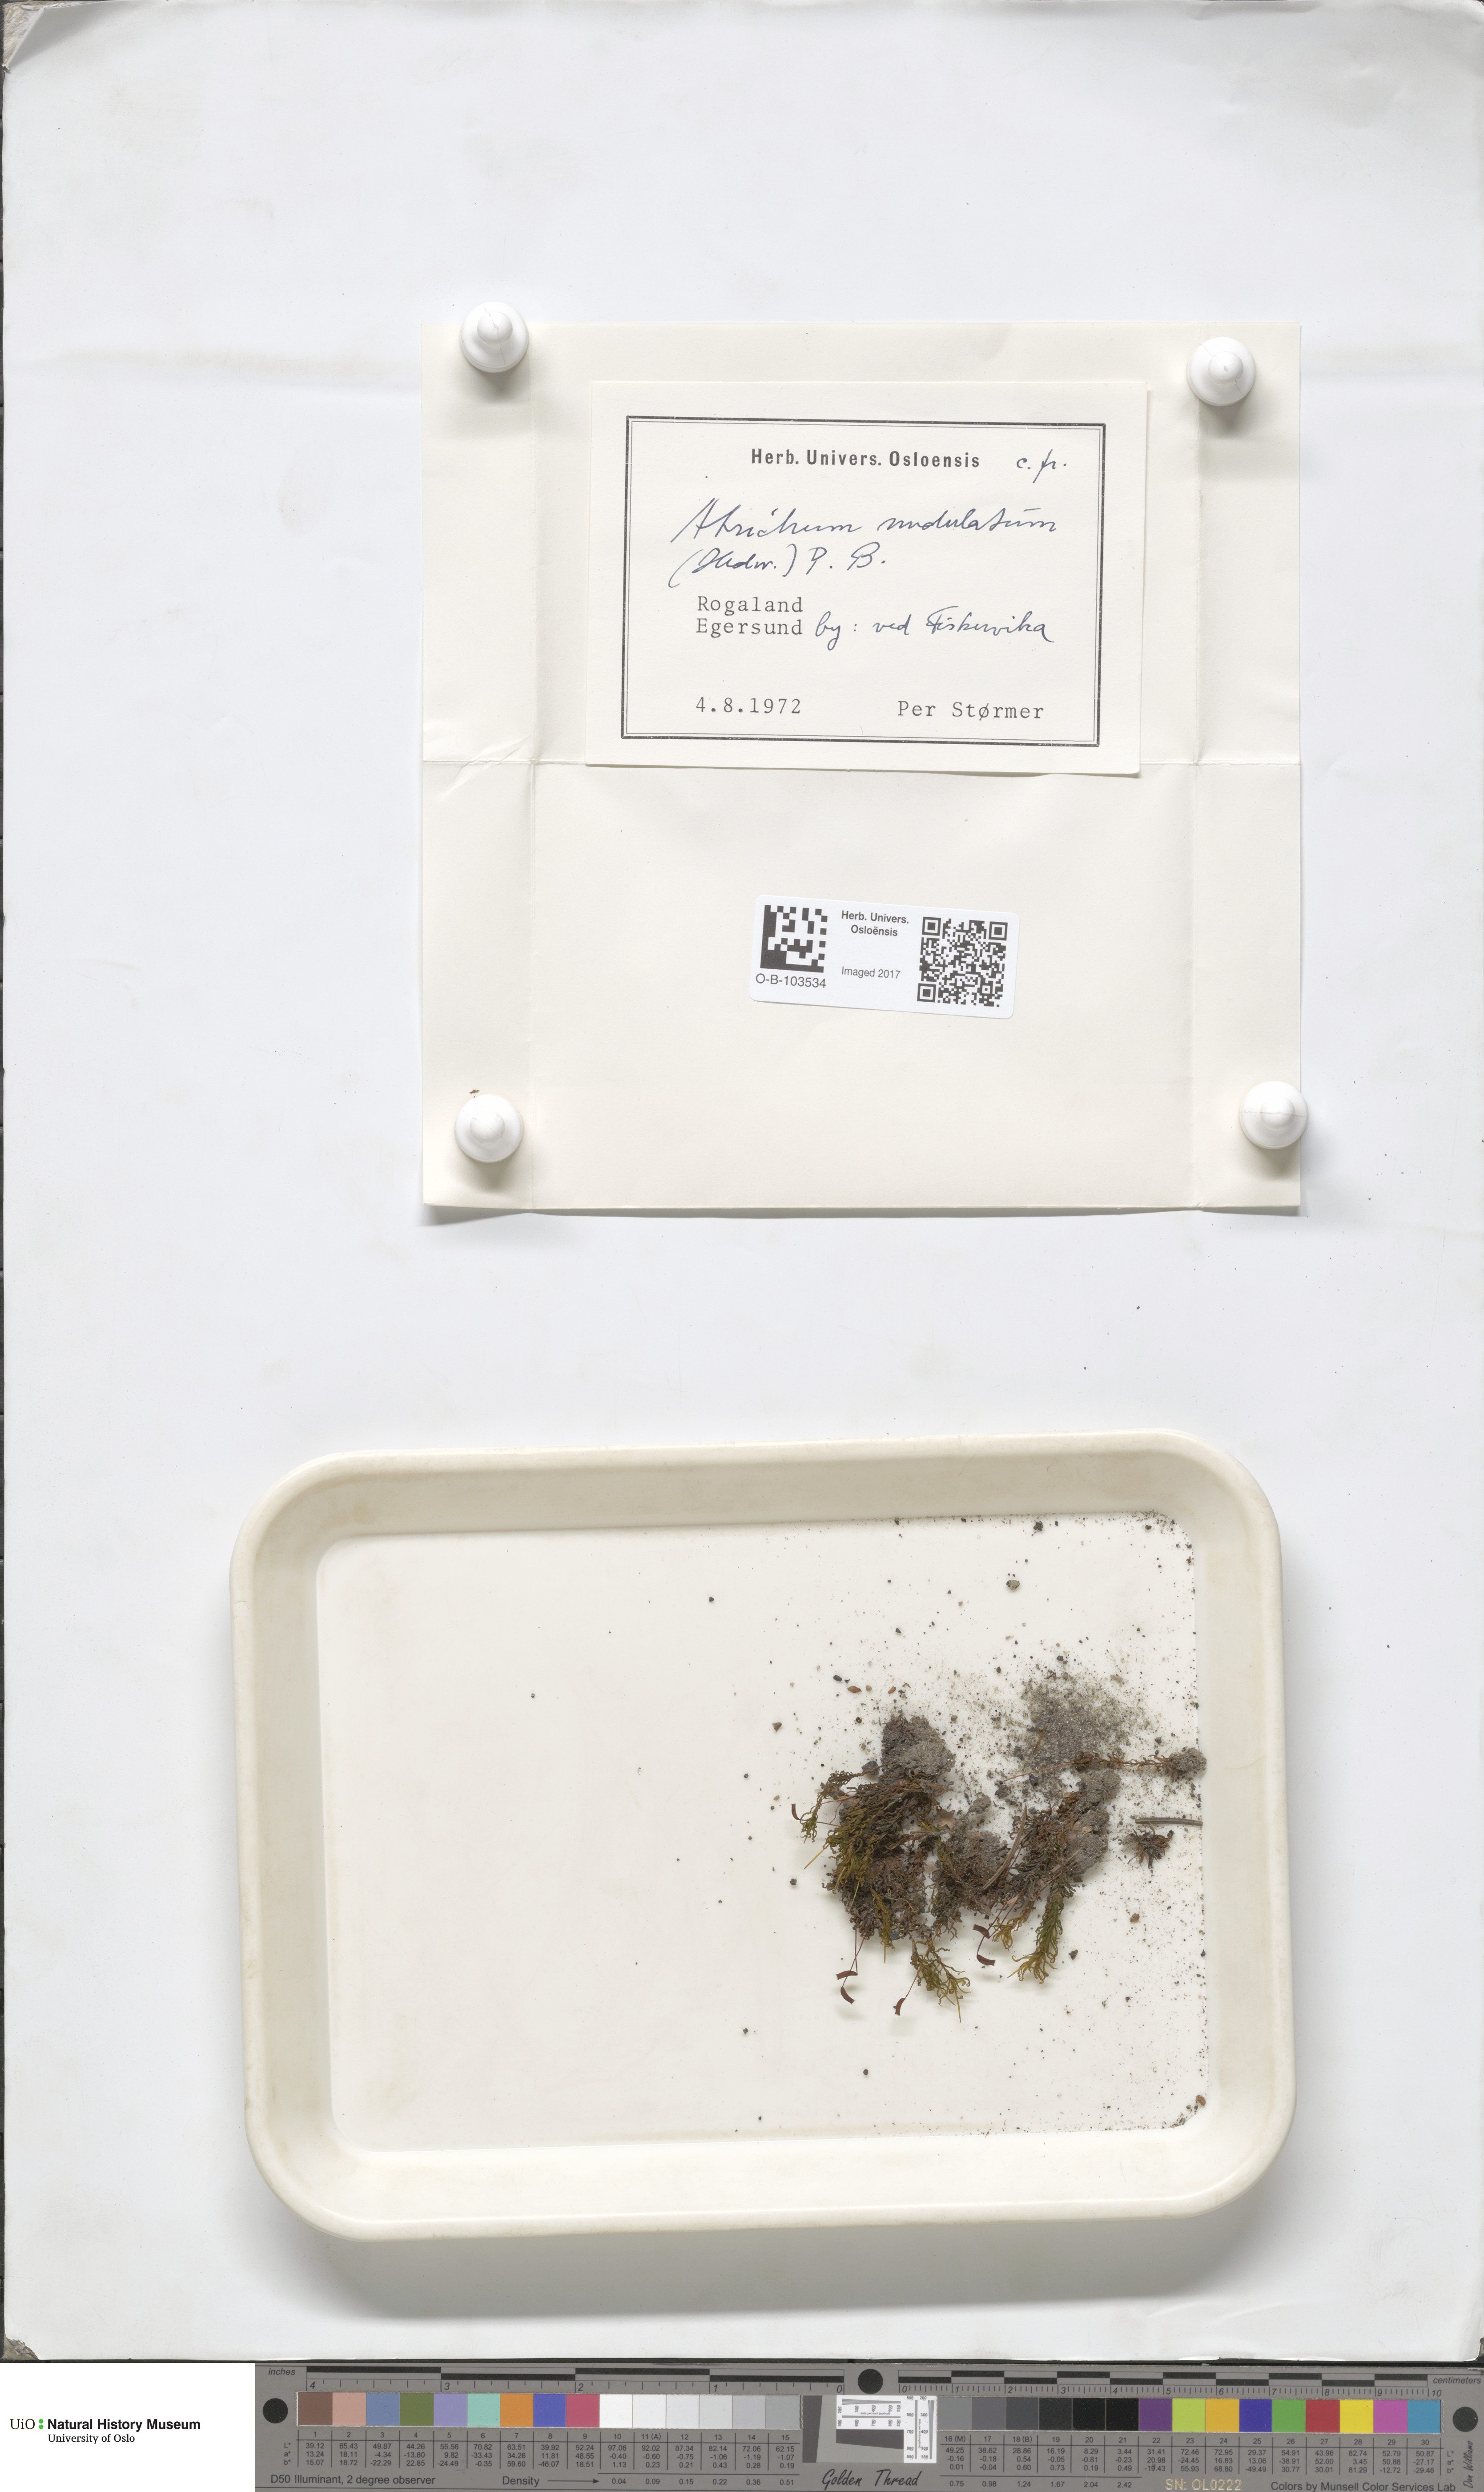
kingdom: Plantae
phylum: Bryophyta
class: Polytrichopsida
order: Polytrichales
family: Polytrichaceae
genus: Atrichum
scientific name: Atrichum undulatum
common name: Common smoothcap
